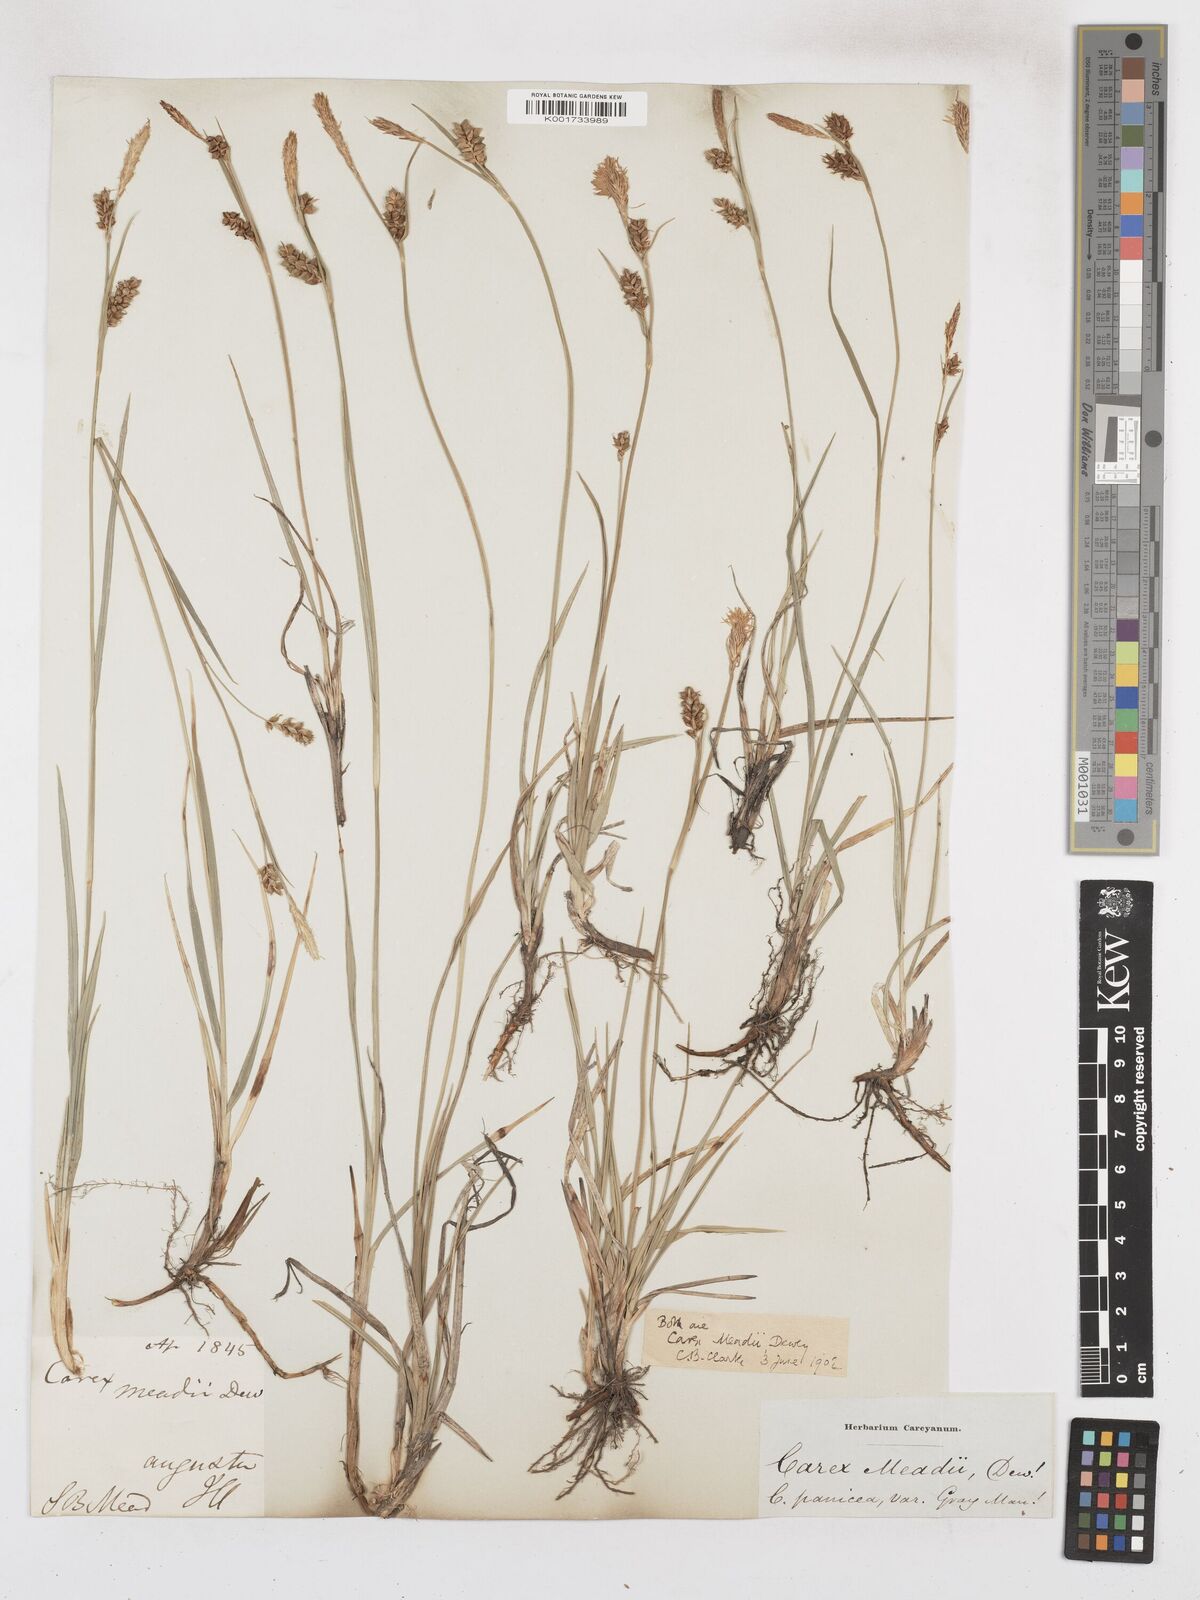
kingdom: Plantae
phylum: Tracheophyta
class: Liliopsida
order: Poales
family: Cyperaceae
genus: Carex
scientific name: Carex meadii
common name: Mead's sedge
